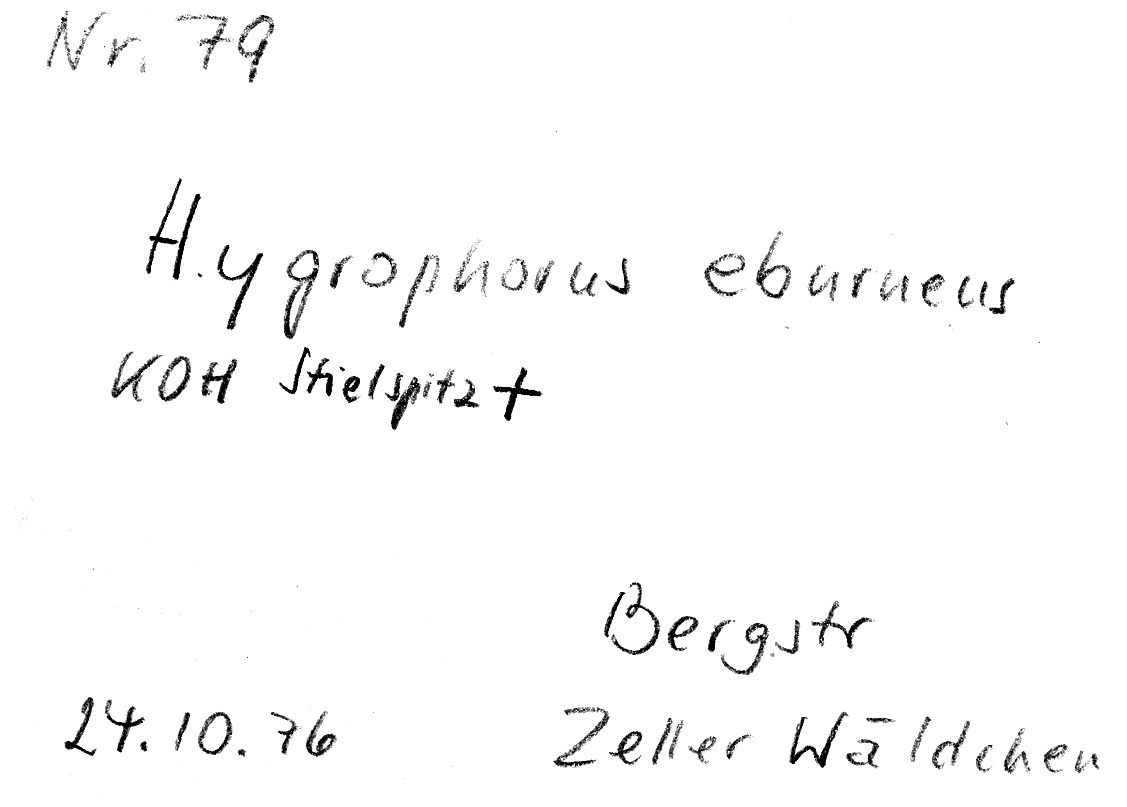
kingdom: Fungi
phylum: Basidiomycota
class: Agaricomycetes
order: Agaricales
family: Hygrophoraceae
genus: Hygrophorus
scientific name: Hygrophorus eburneus
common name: Ivory wax-cap
